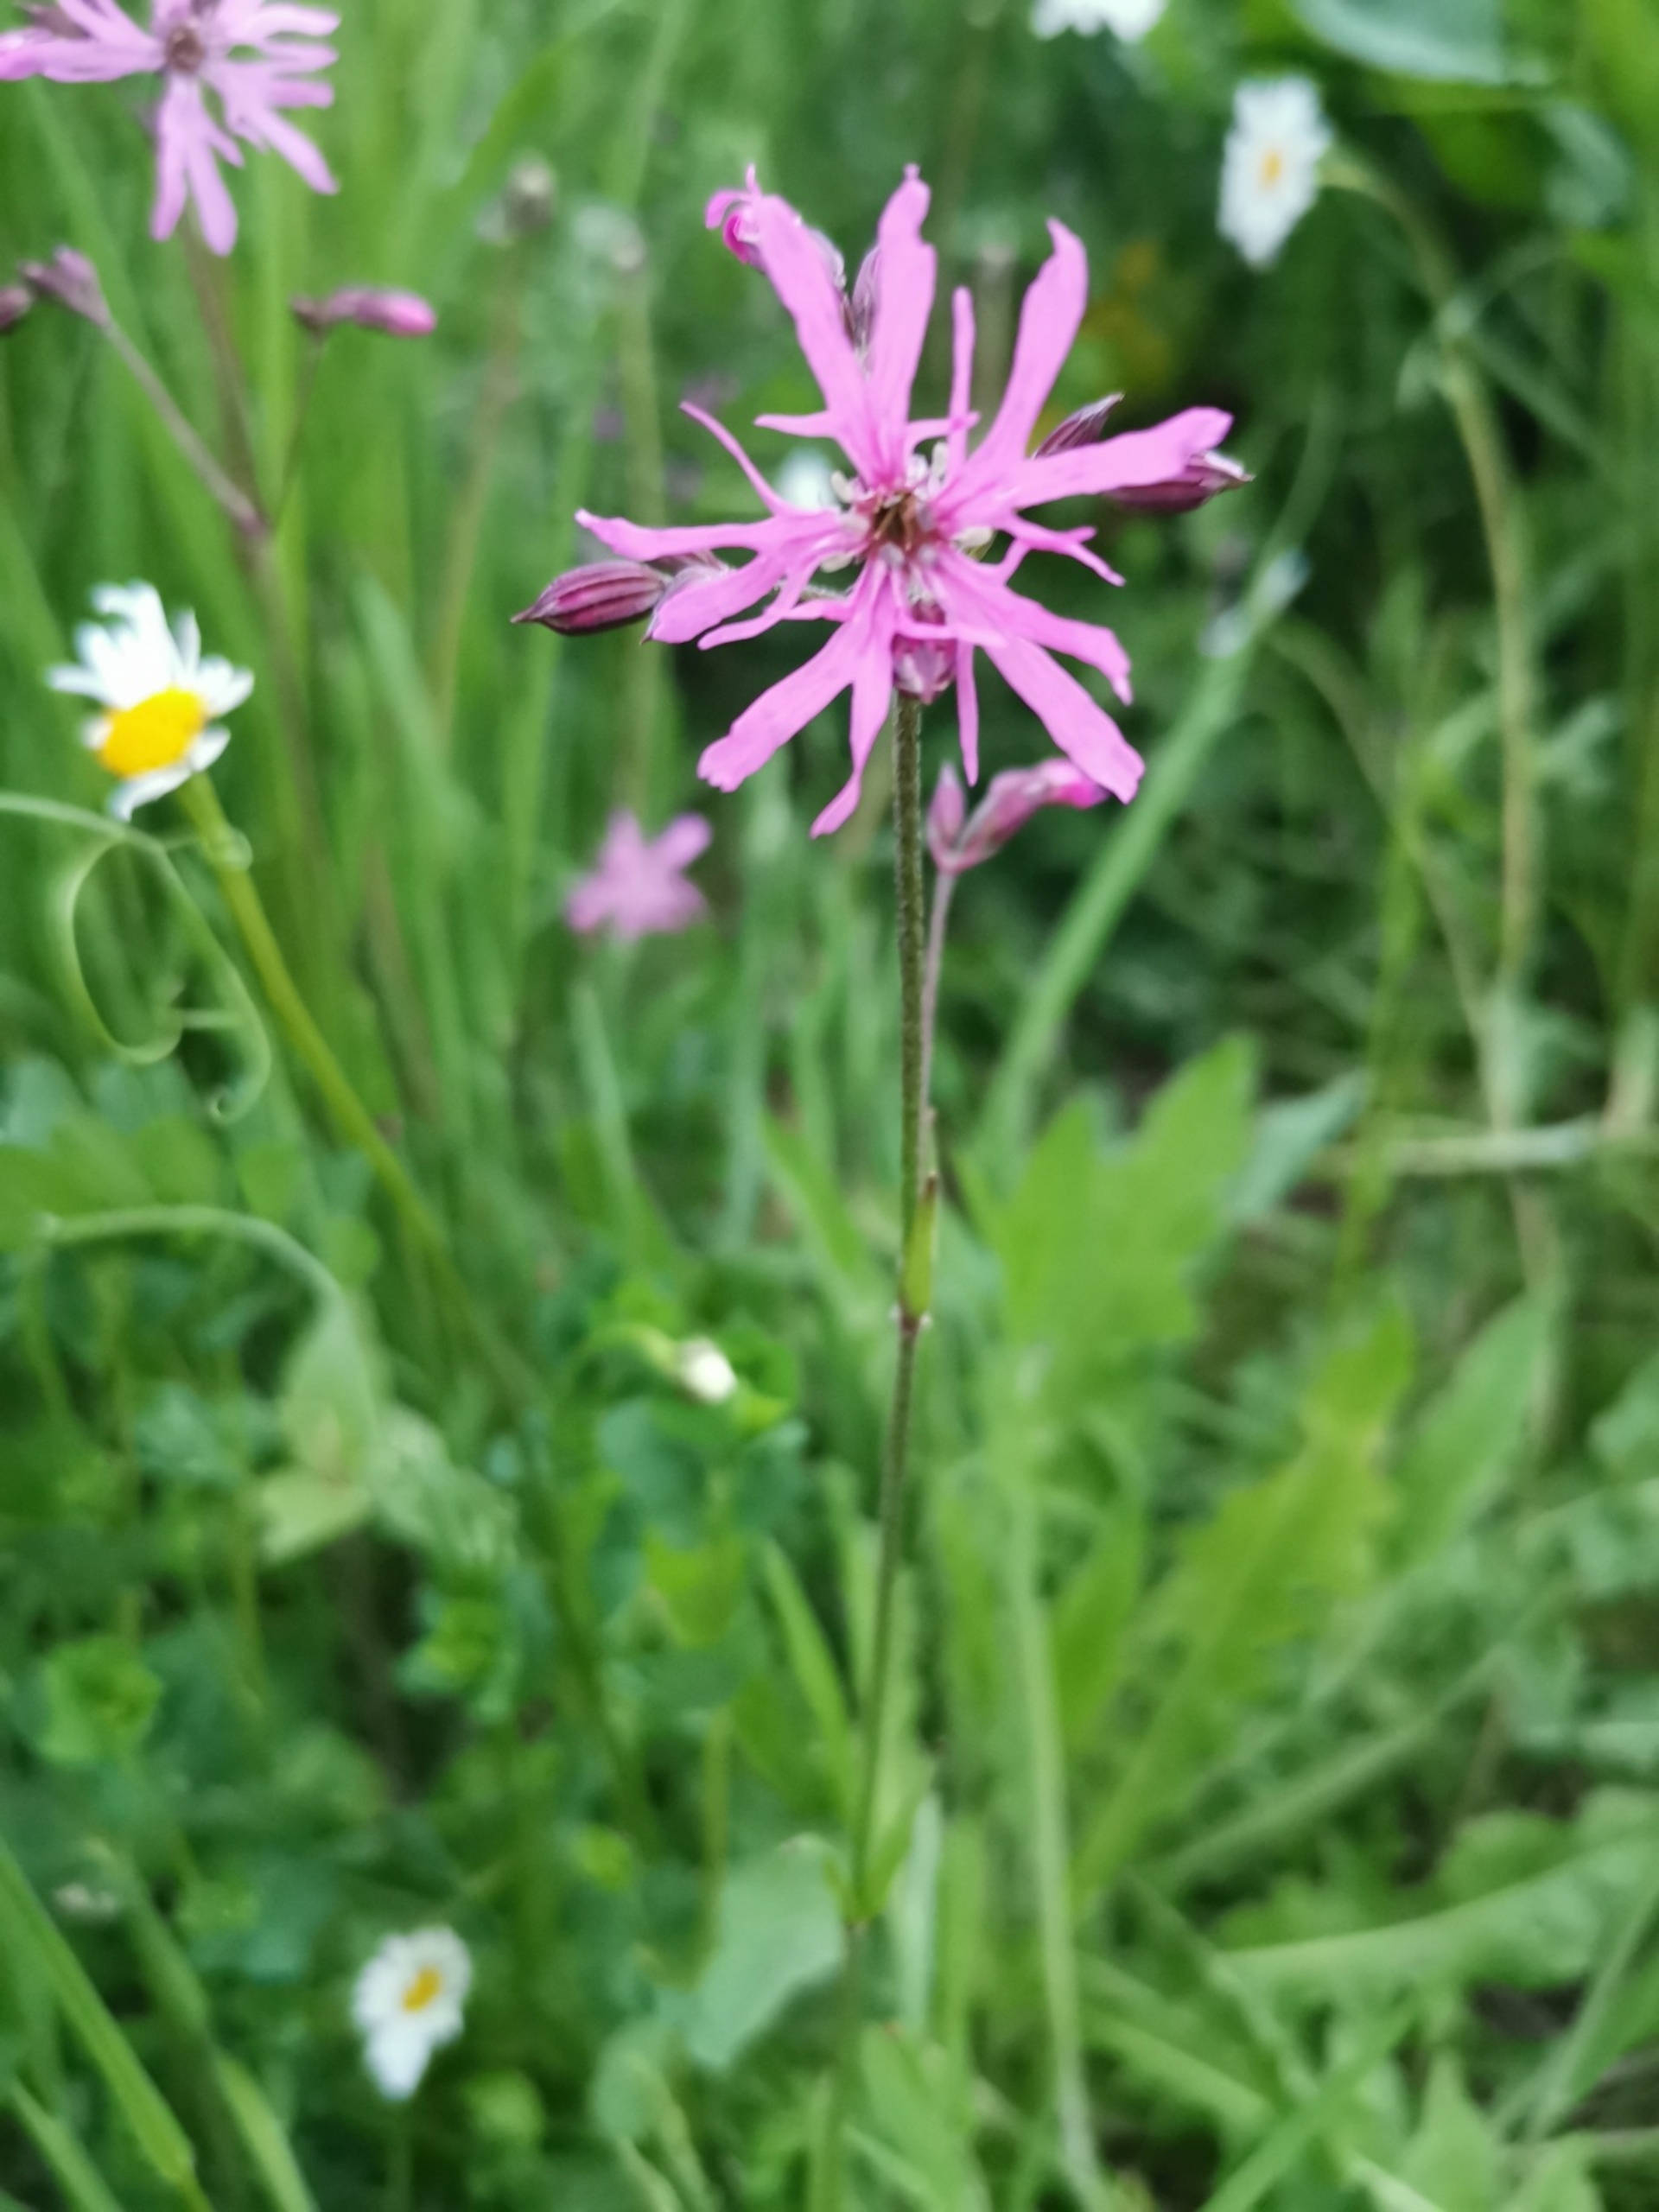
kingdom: Plantae
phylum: Tracheophyta
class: Magnoliopsida
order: Caryophyllales
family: Caryophyllaceae
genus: Silene
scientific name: Silene flos-cuculi
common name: Trævlekrone
